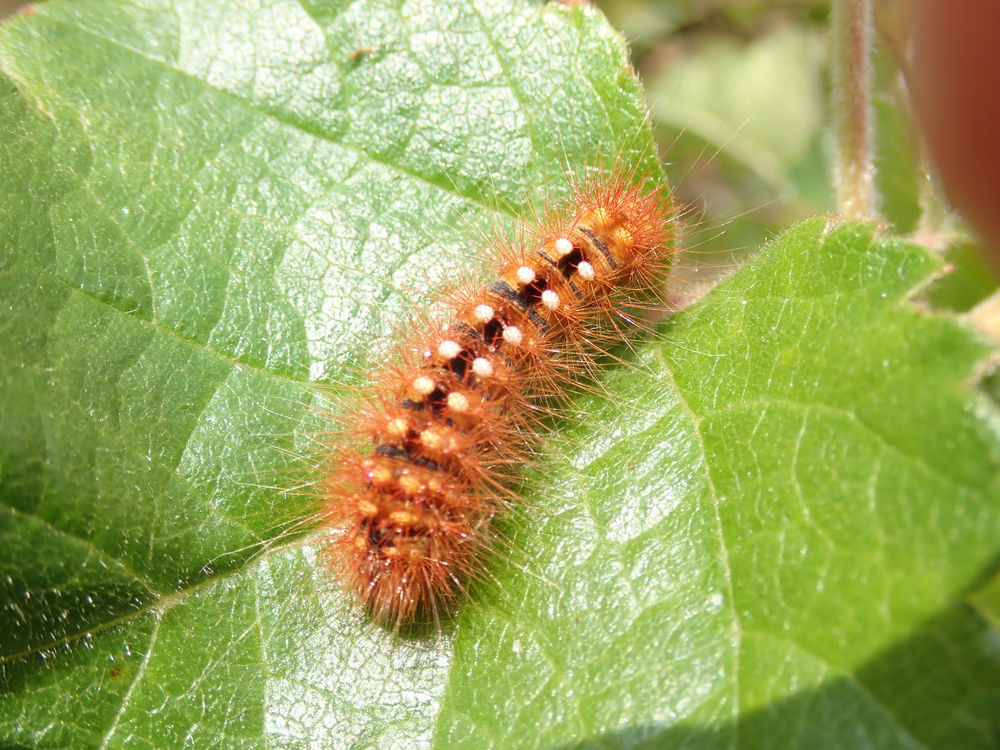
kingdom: Animalia
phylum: Arthropoda
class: Insecta
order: Lepidoptera
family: Noctuidae
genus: Acronicta
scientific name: Acronicta auricoma
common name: Guldlok-pelsugle
